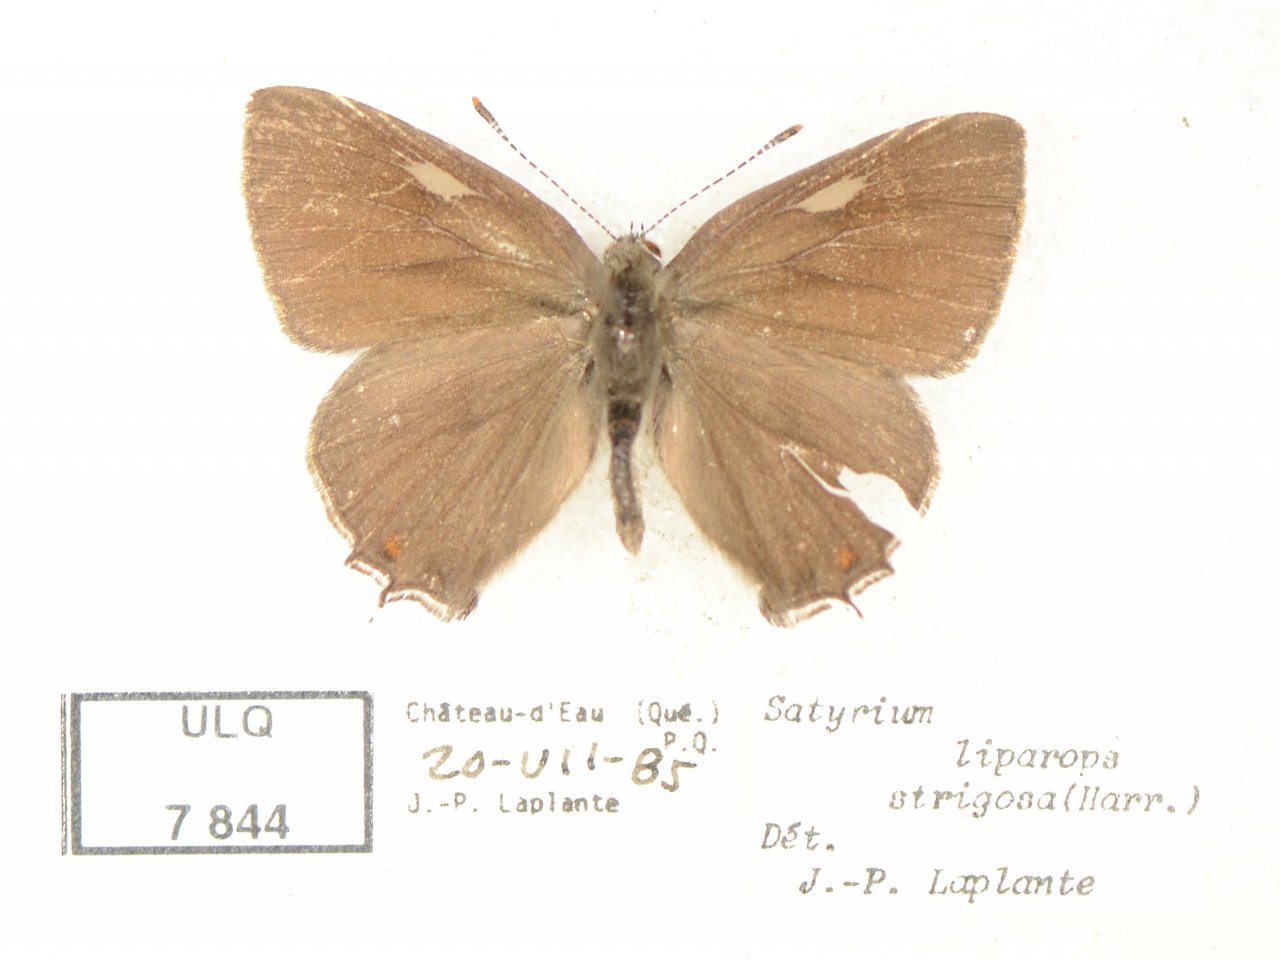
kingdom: Animalia
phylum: Arthropoda
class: Insecta
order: Lepidoptera
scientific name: Lepidoptera
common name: Butterflies
